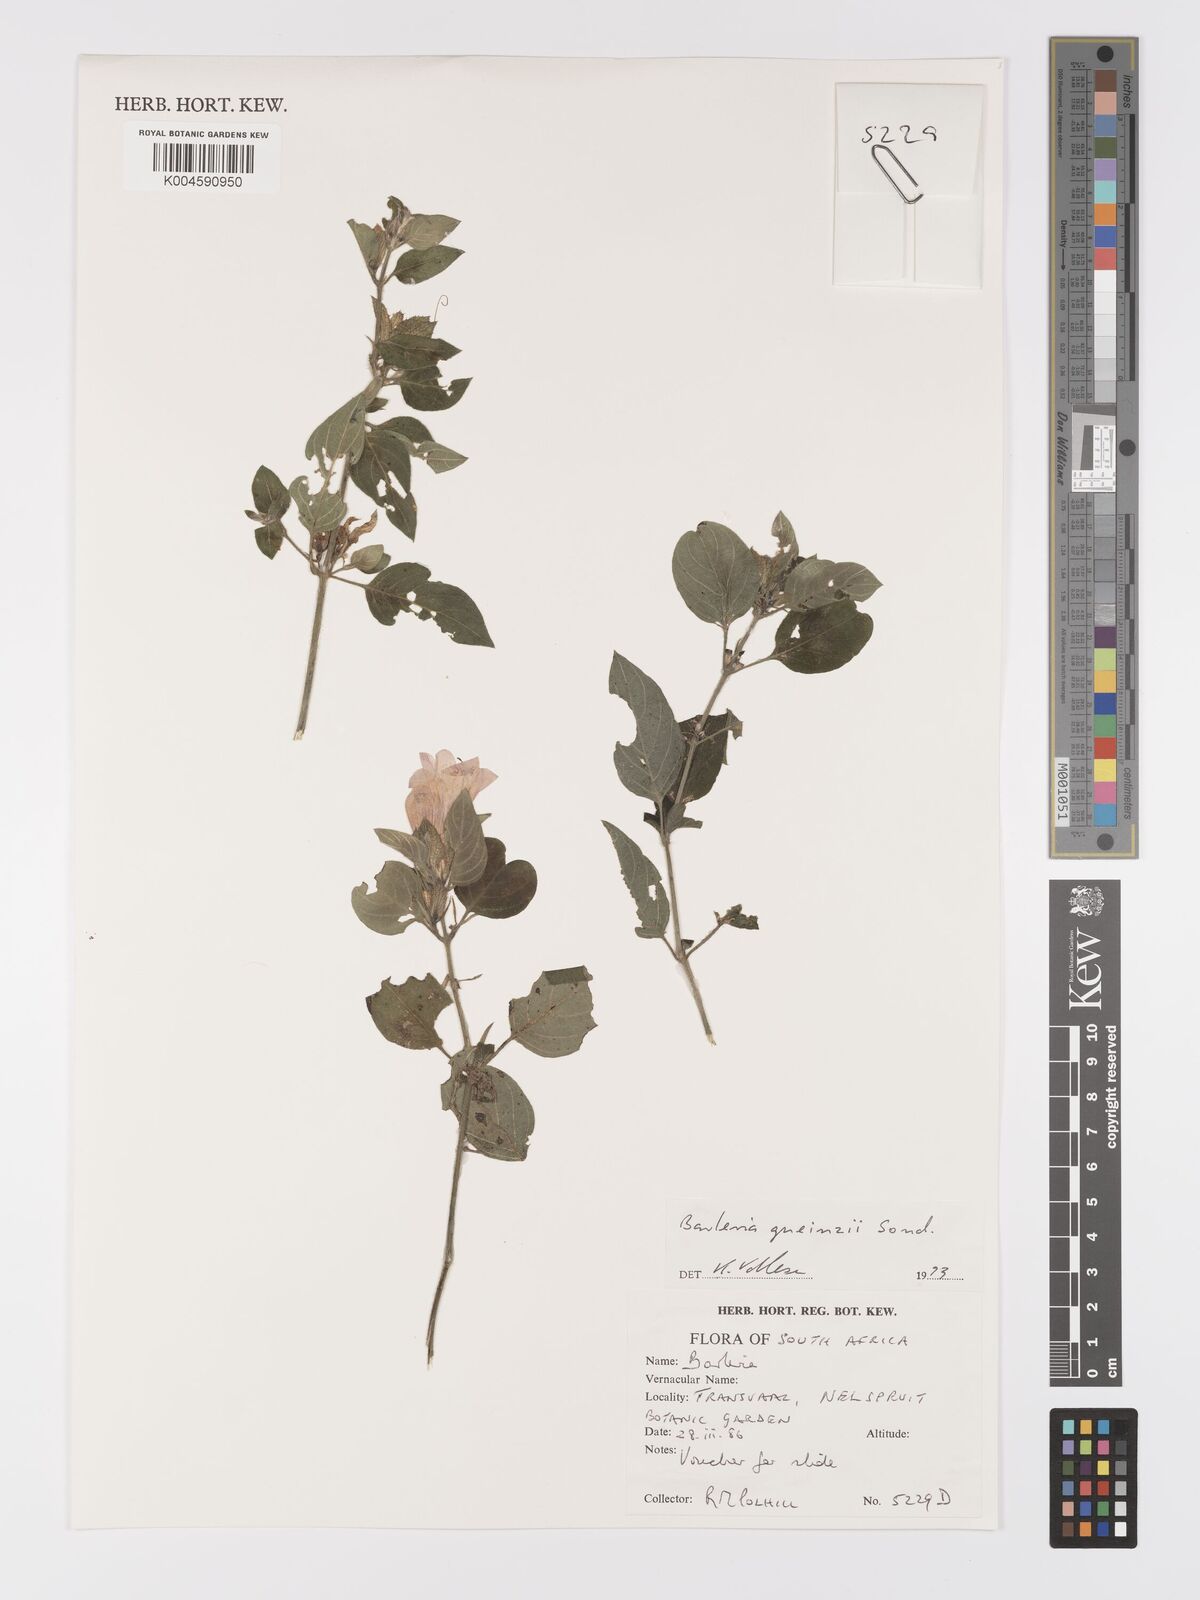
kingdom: Plantae
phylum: Tracheophyta
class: Magnoliopsida
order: Lamiales
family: Acanthaceae
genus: Barleria
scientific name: Barleria gueinzii
